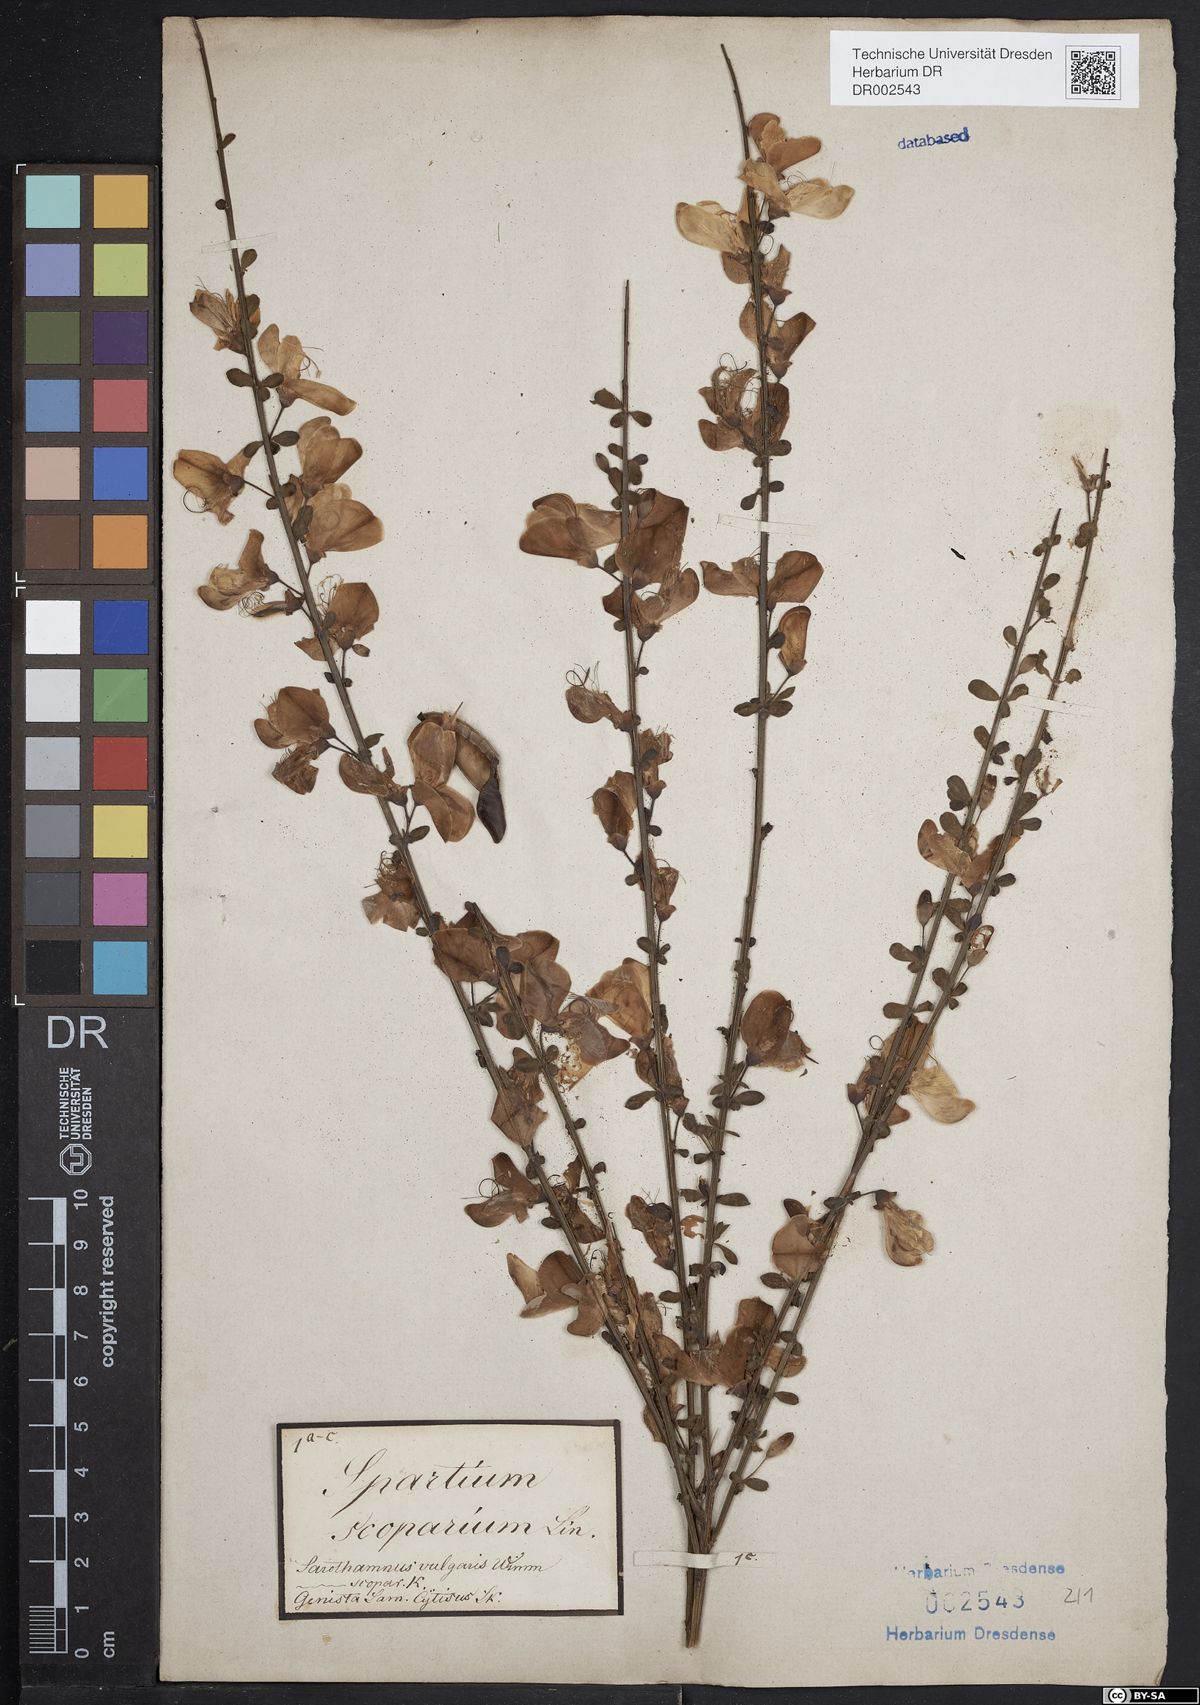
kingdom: Plantae
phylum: Tracheophyta
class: Magnoliopsida
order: Fabales
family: Fabaceae
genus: Cytisus
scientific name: Cytisus scoparius
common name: Scotch broom
